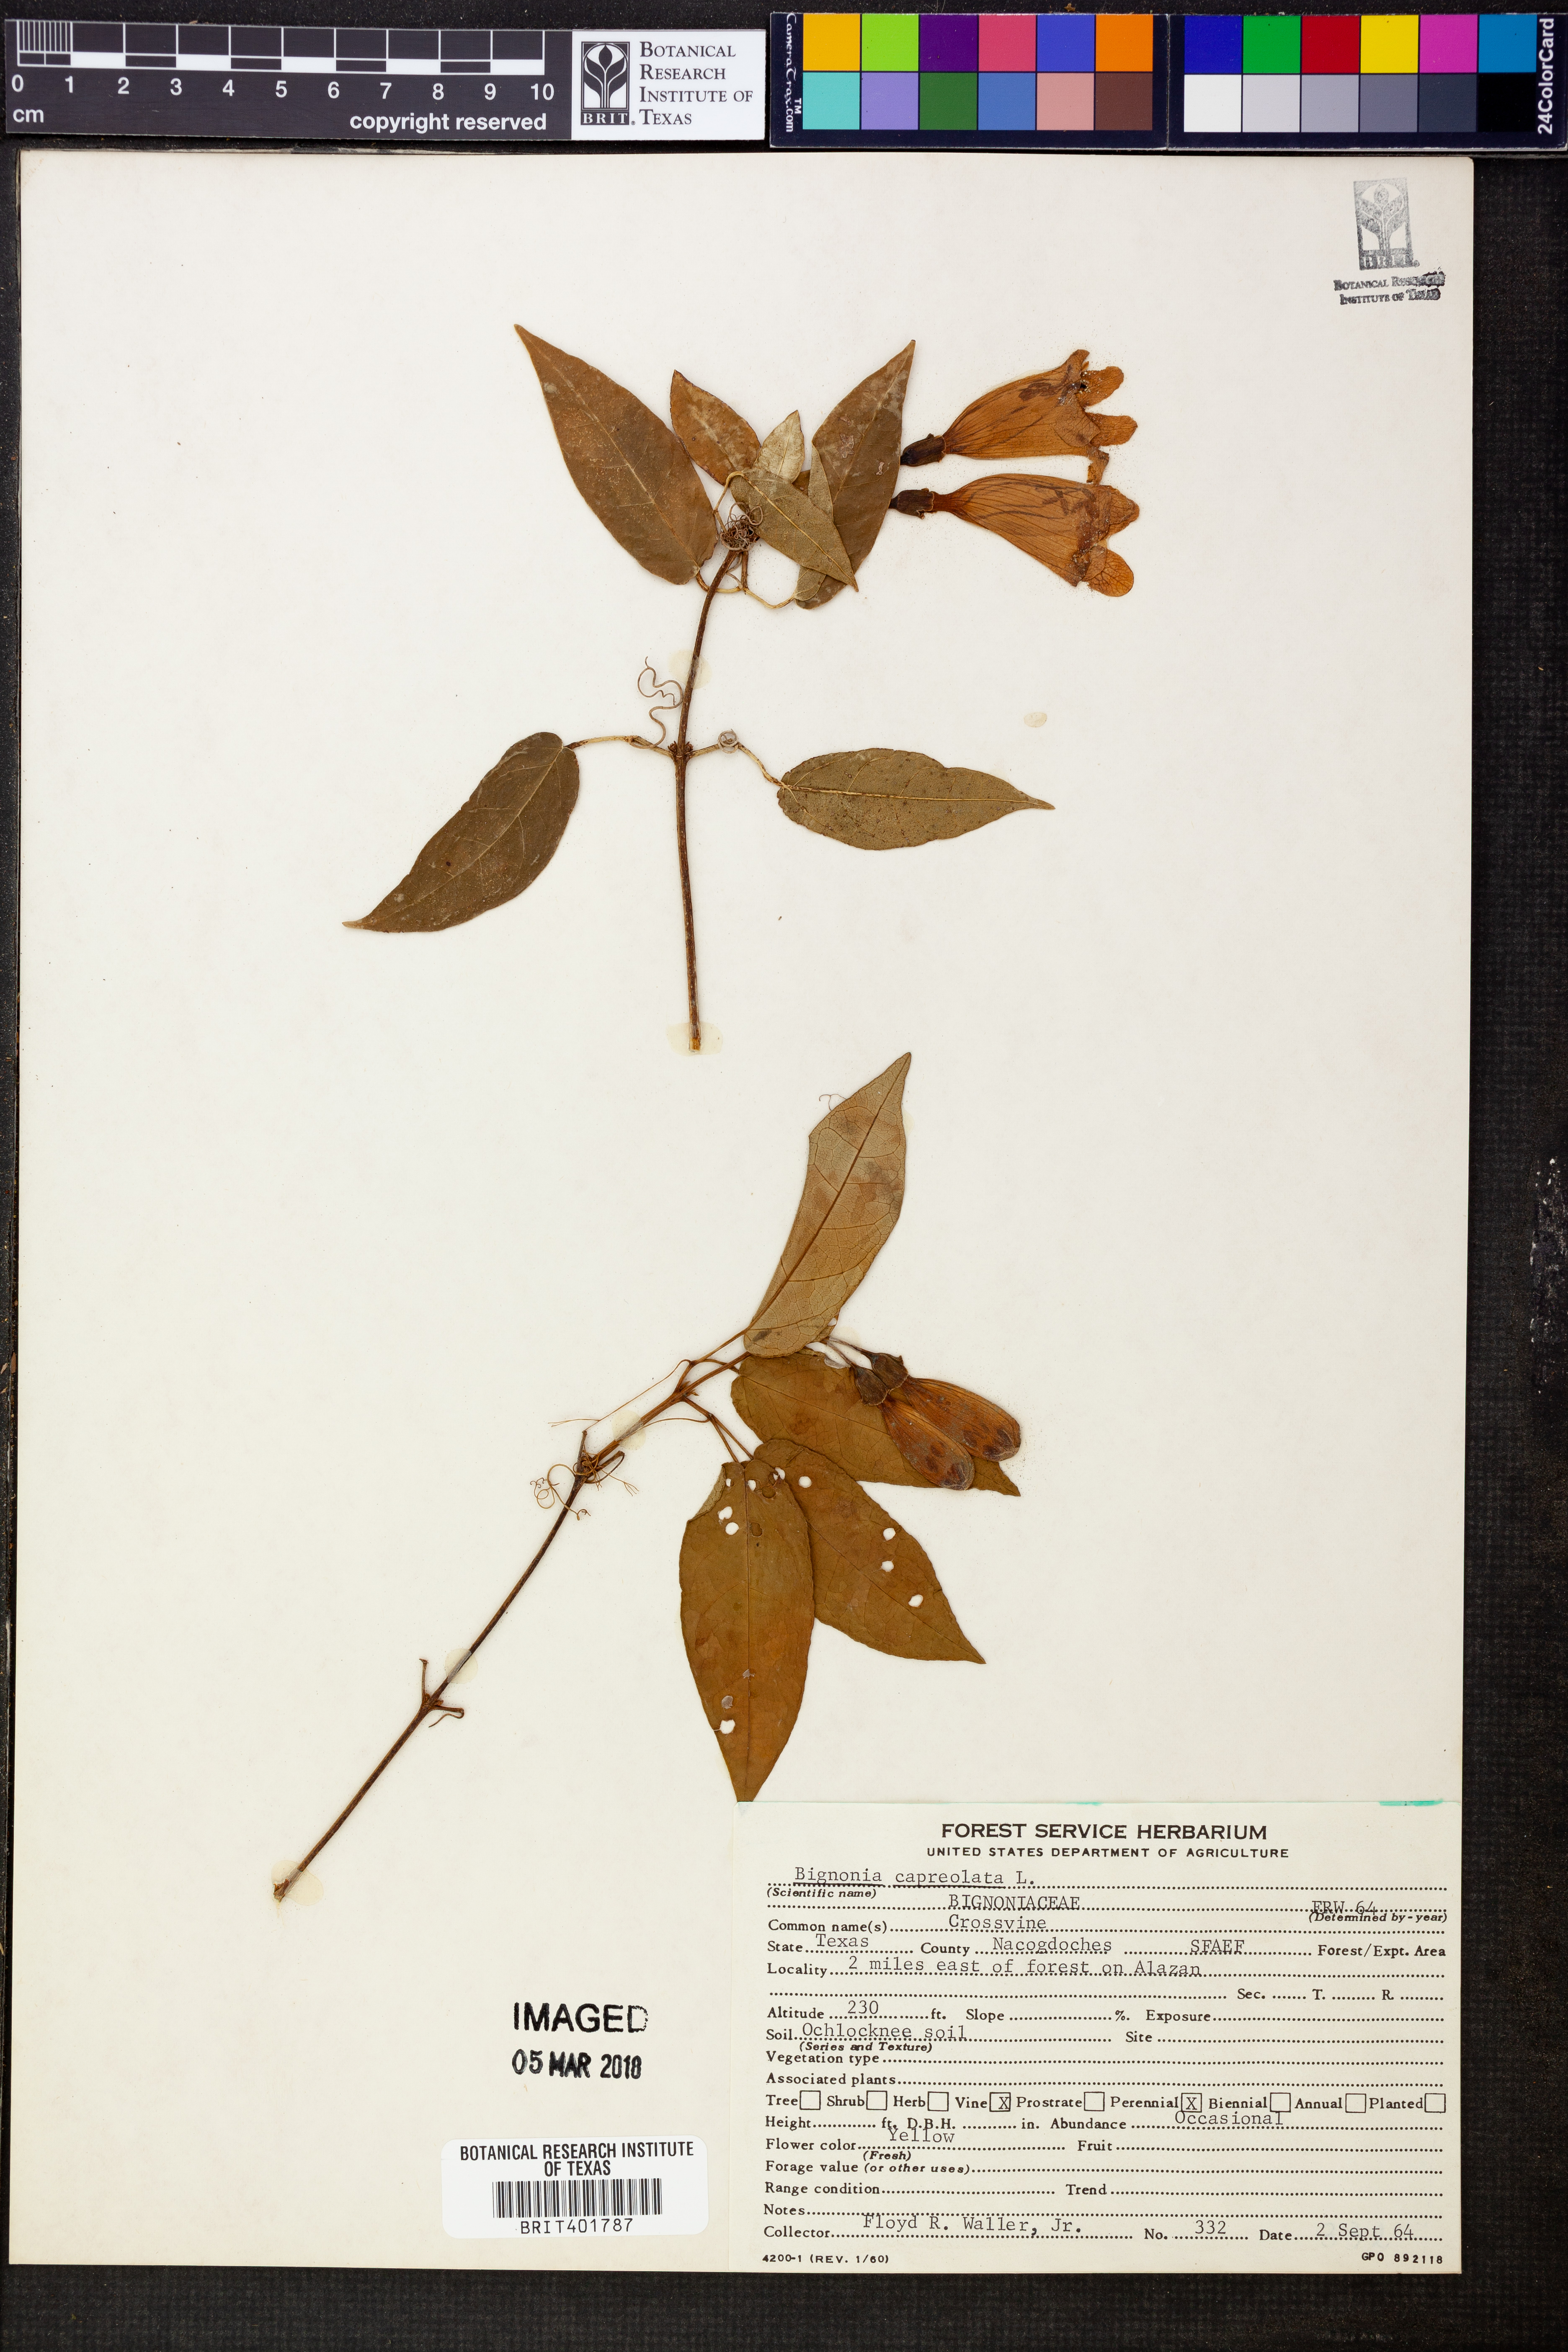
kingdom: Plantae
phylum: Tracheophyta
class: Magnoliopsida
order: Lamiales
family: Bignoniaceae
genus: Bignonia
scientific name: Bignonia capreolata
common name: Crossvine
